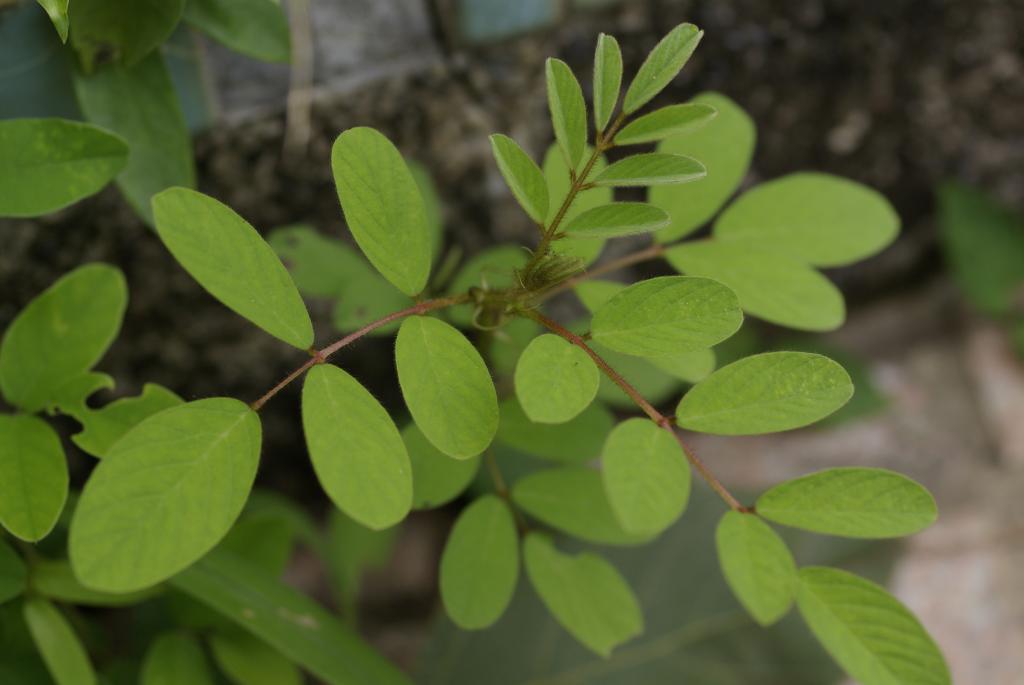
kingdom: Plantae
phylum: Tracheophyta
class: Magnoliopsida
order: Fabales
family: Fabaceae
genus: Indigofera
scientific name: Indigofera hirsuta
